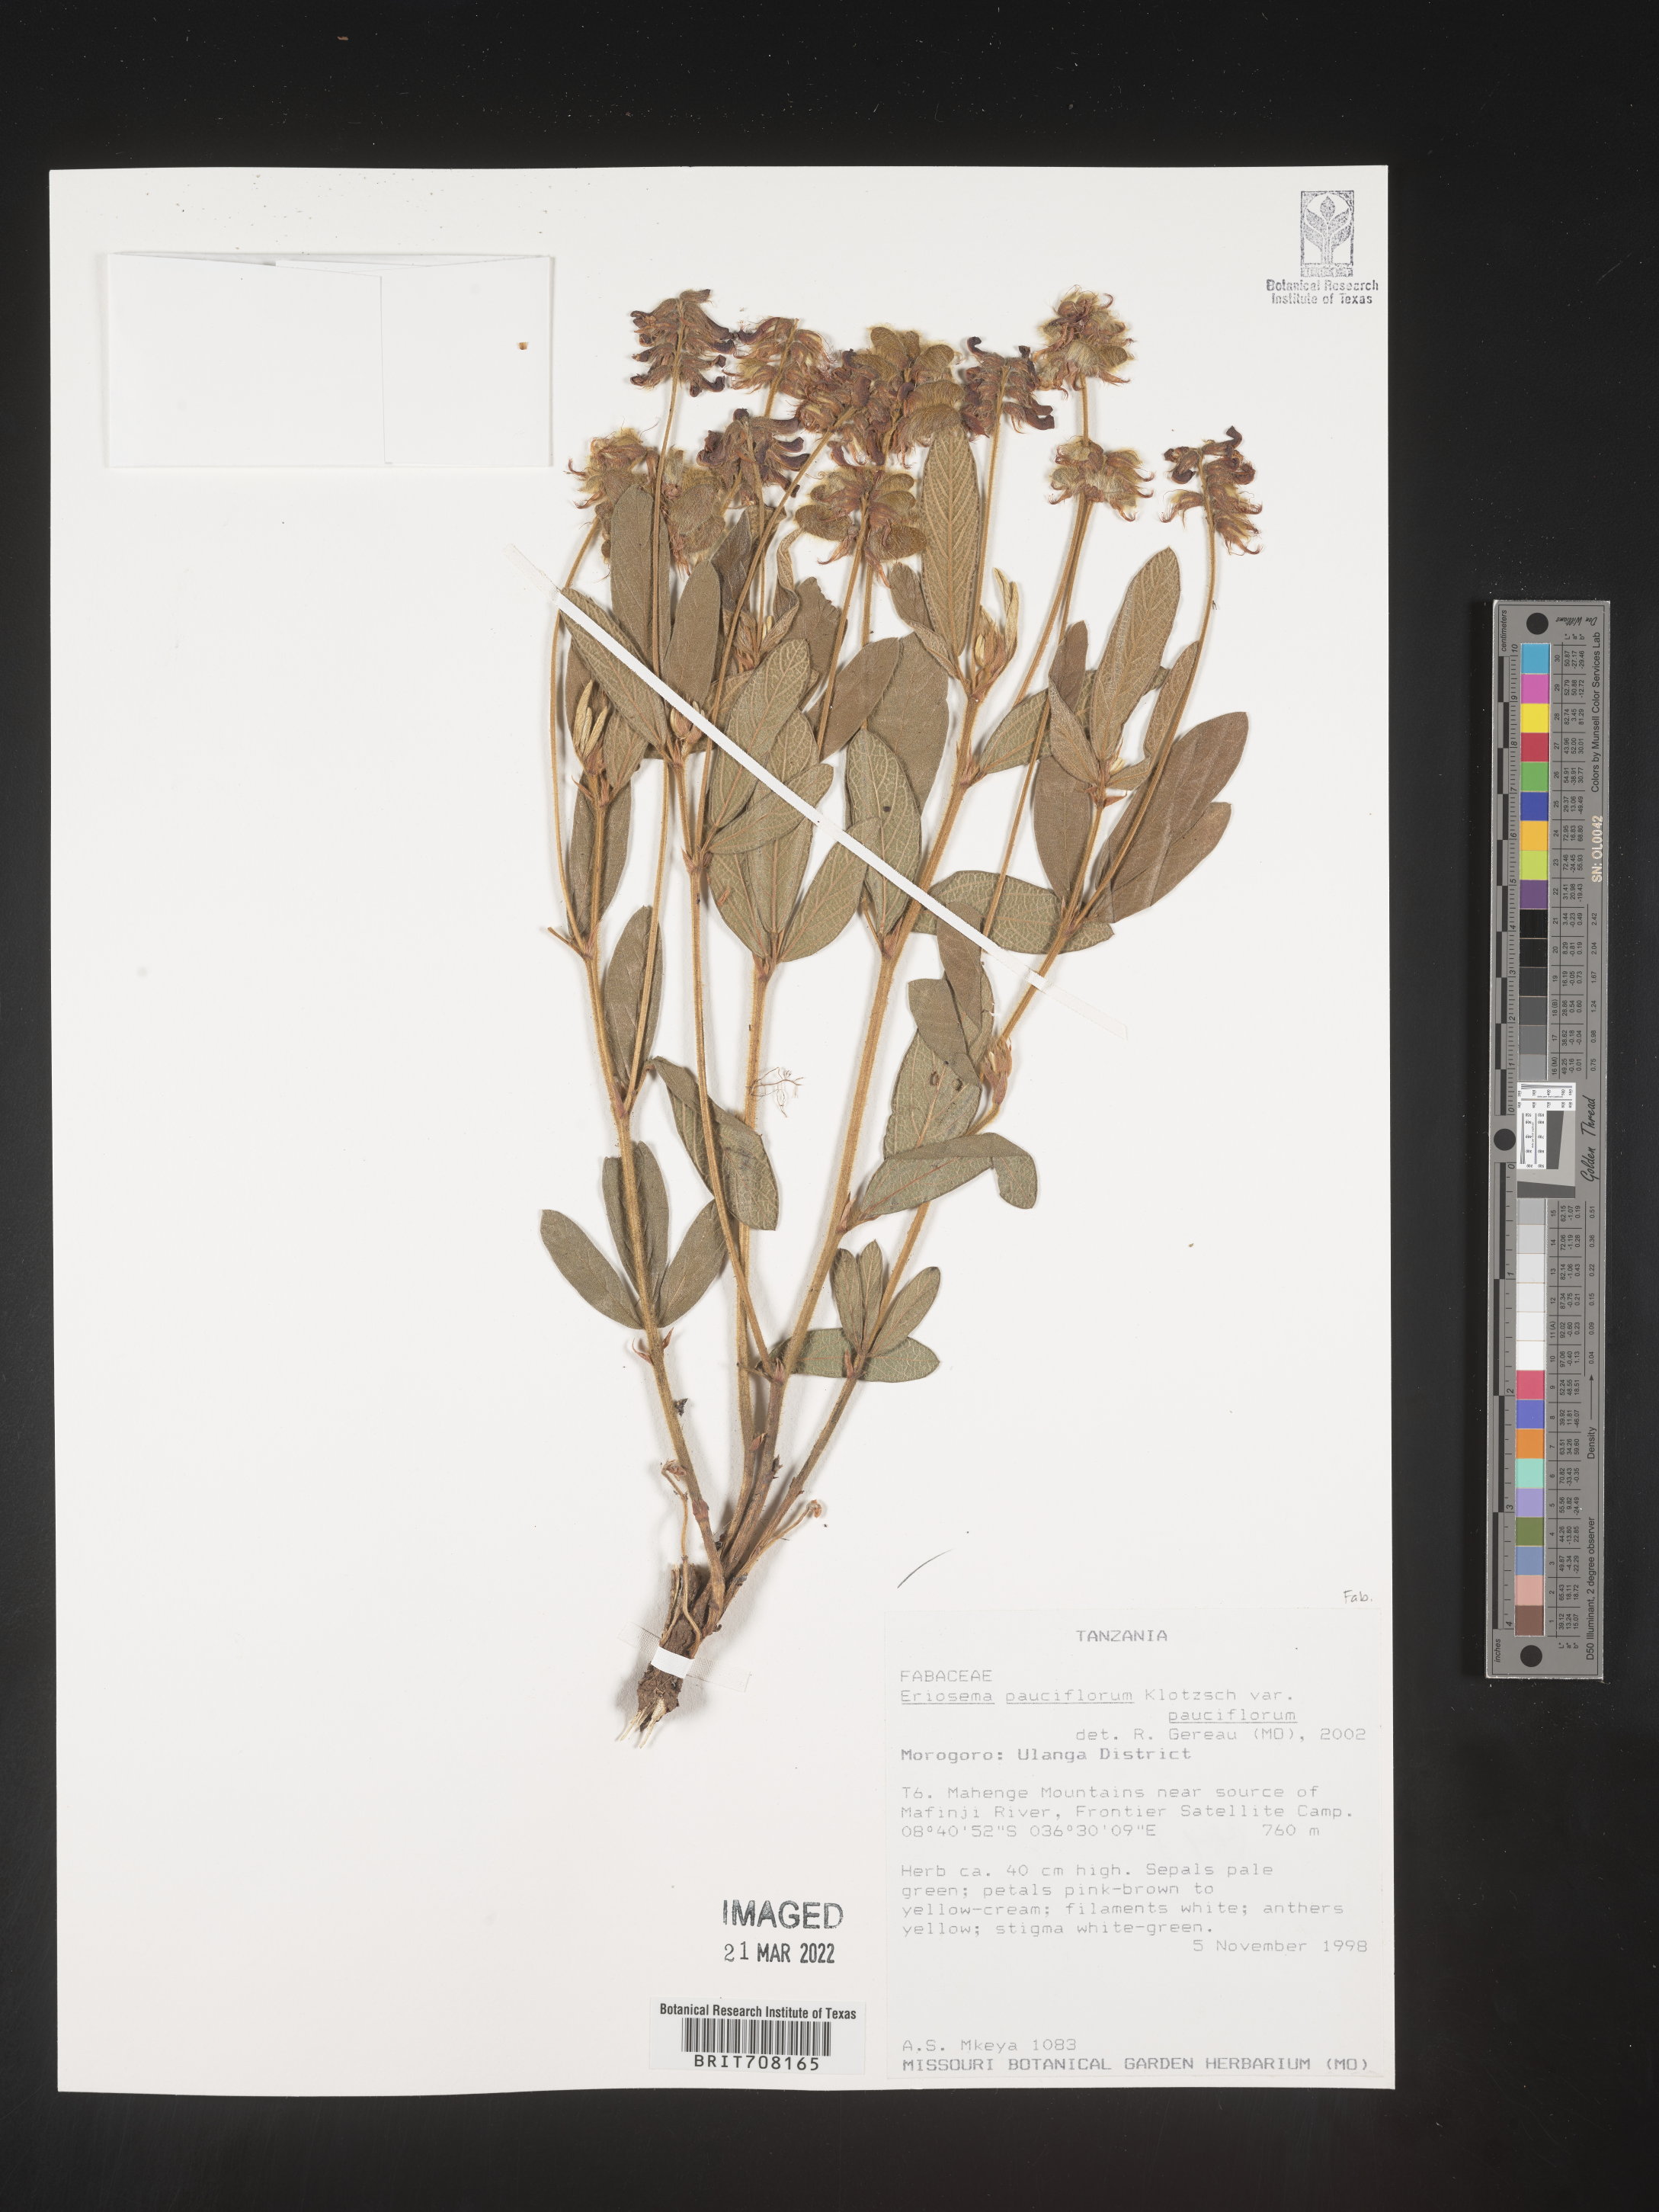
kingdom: Plantae
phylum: Tracheophyta
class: Magnoliopsida
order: Fabales
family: Fabaceae
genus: Eriosema
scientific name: Eriosema
